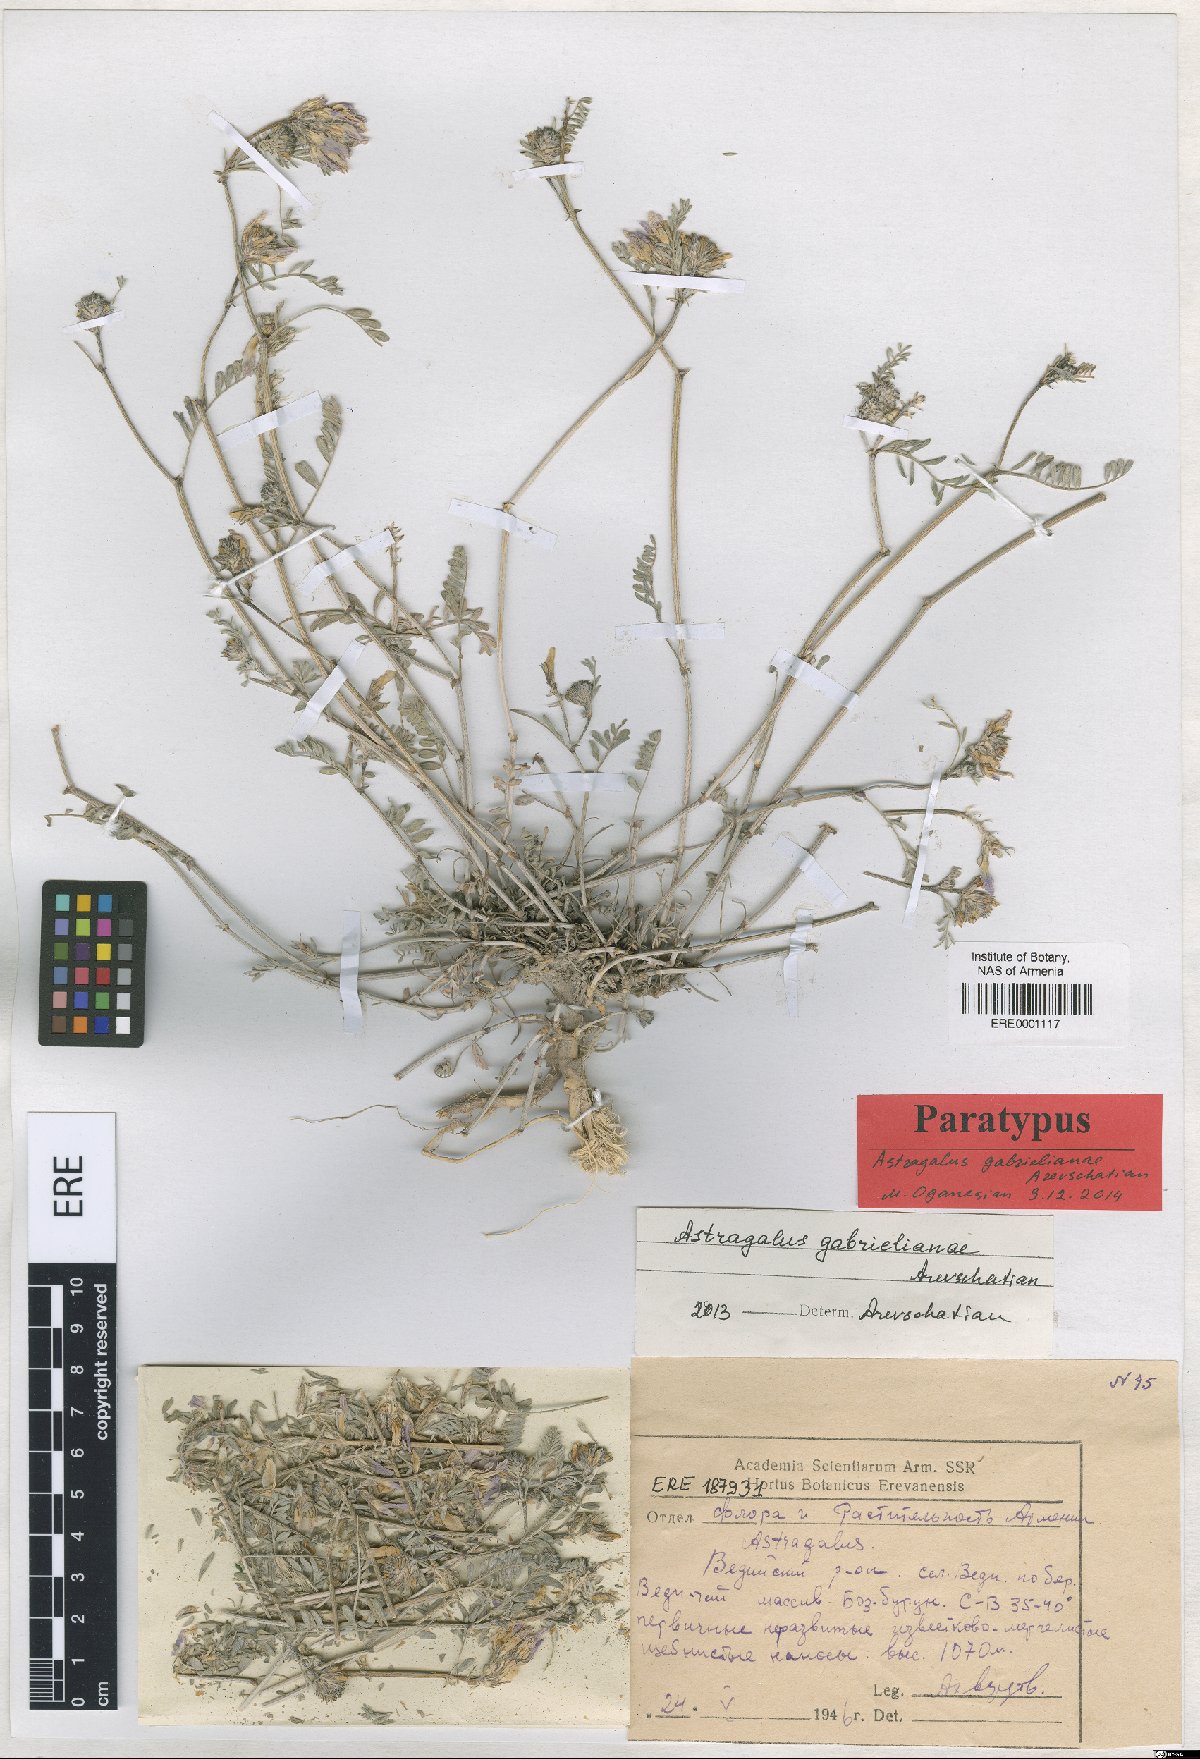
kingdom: Plantae
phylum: Tracheophyta
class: Magnoliopsida
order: Fabales
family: Fabaceae
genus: Astragalus
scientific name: Astragalus gabrelianae
